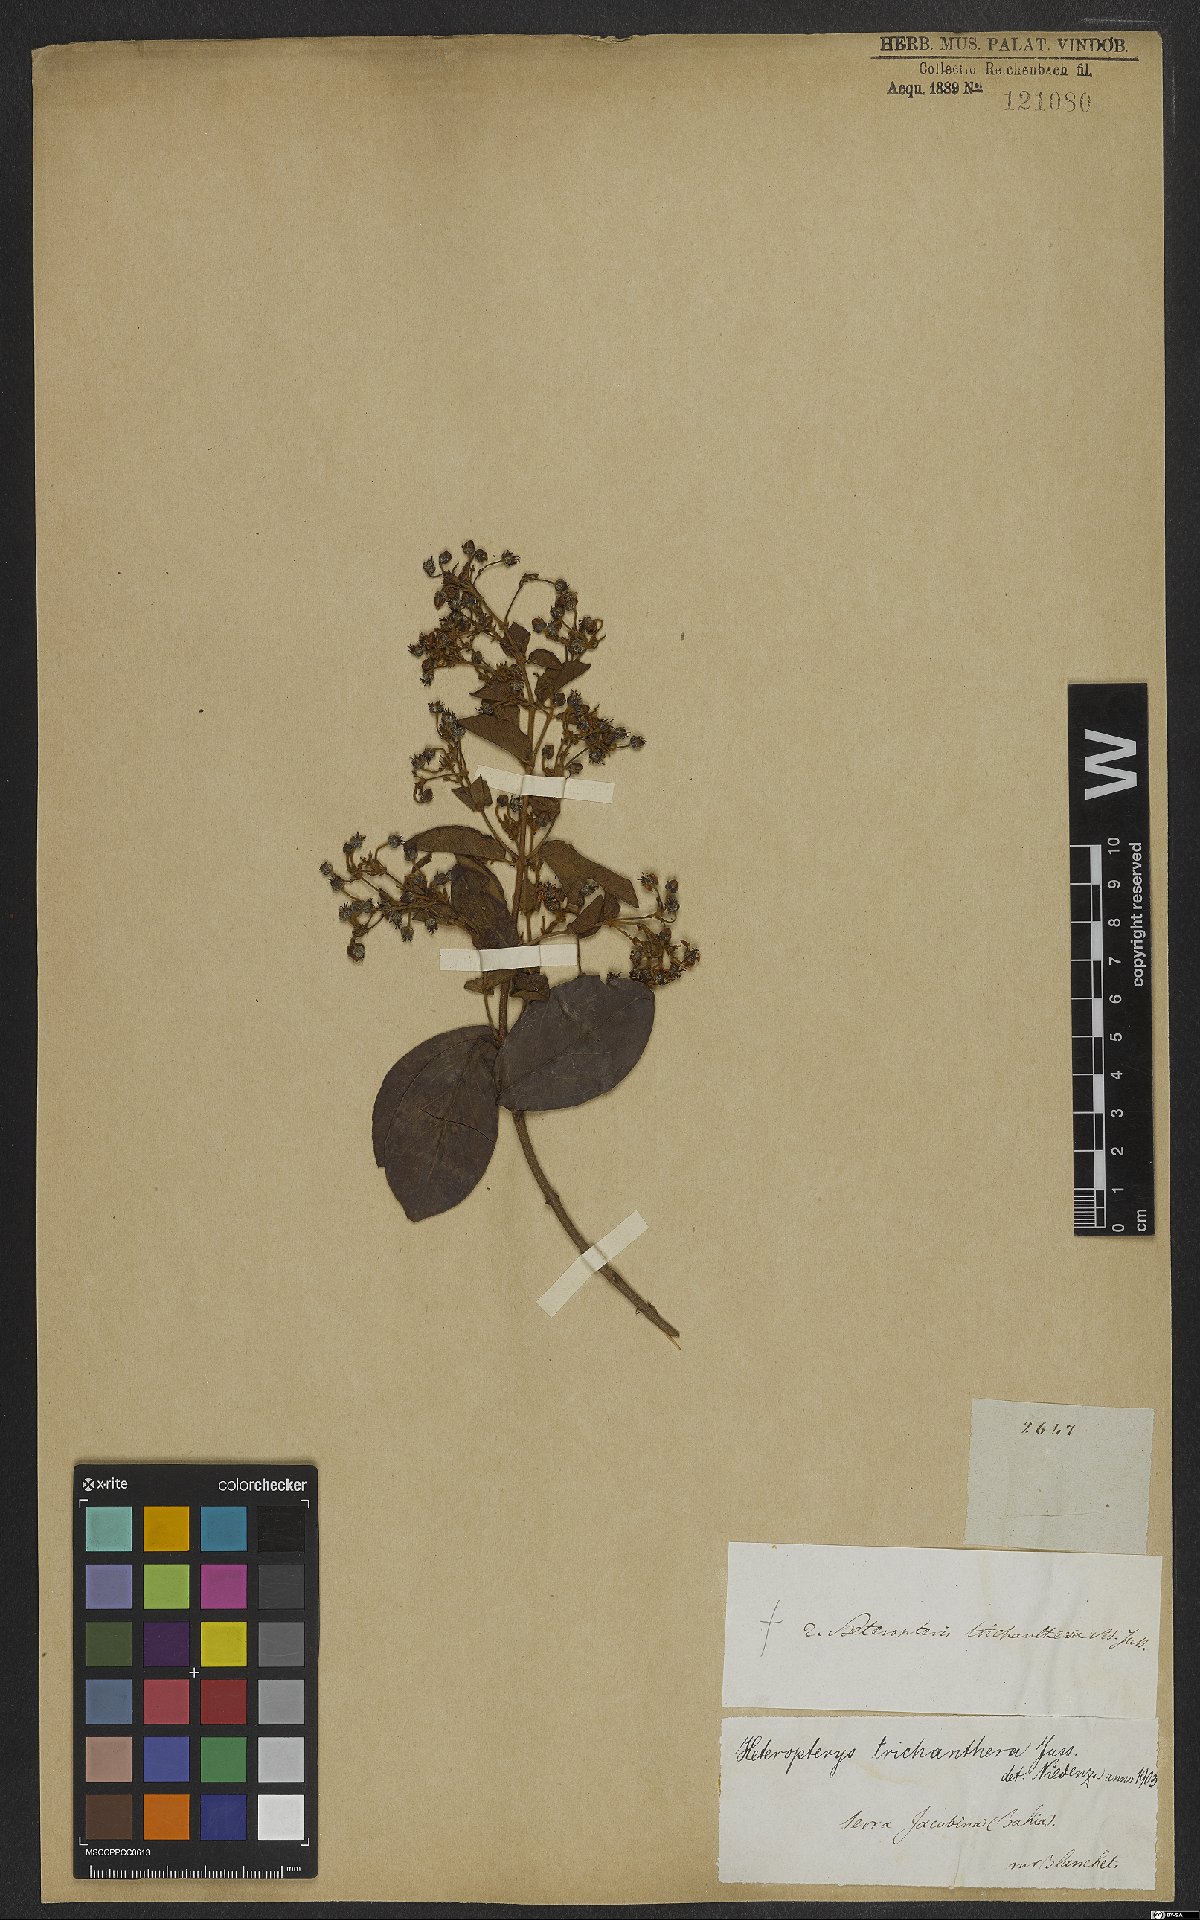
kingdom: Plantae
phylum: Tracheophyta
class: Magnoliopsida
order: Malpighiales
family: Malpighiaceae
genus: Heteropterys
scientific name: Heteropterys trichanthera
